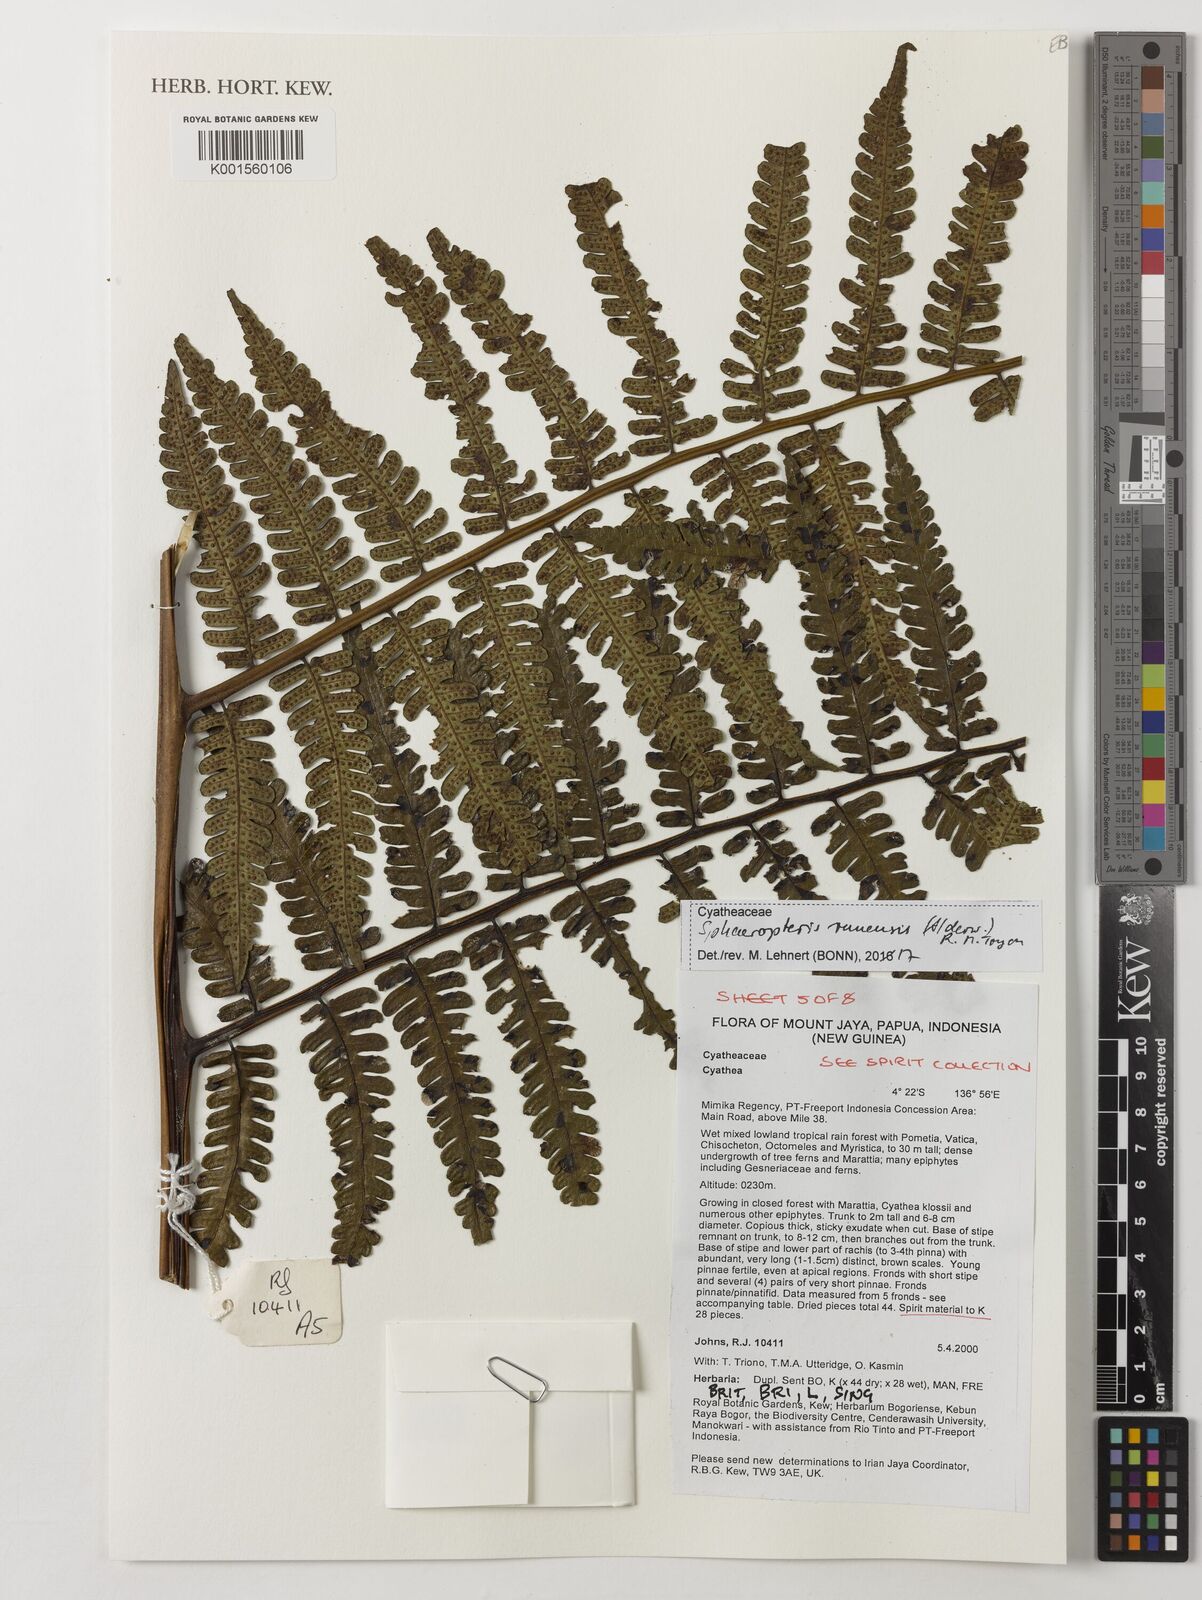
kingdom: Plantae
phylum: Tracheophyta
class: Polypodiopsida
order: Cyatheales
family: Cyatheaceae
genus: Sphaeropteris
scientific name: Sphaeropteris runensis
